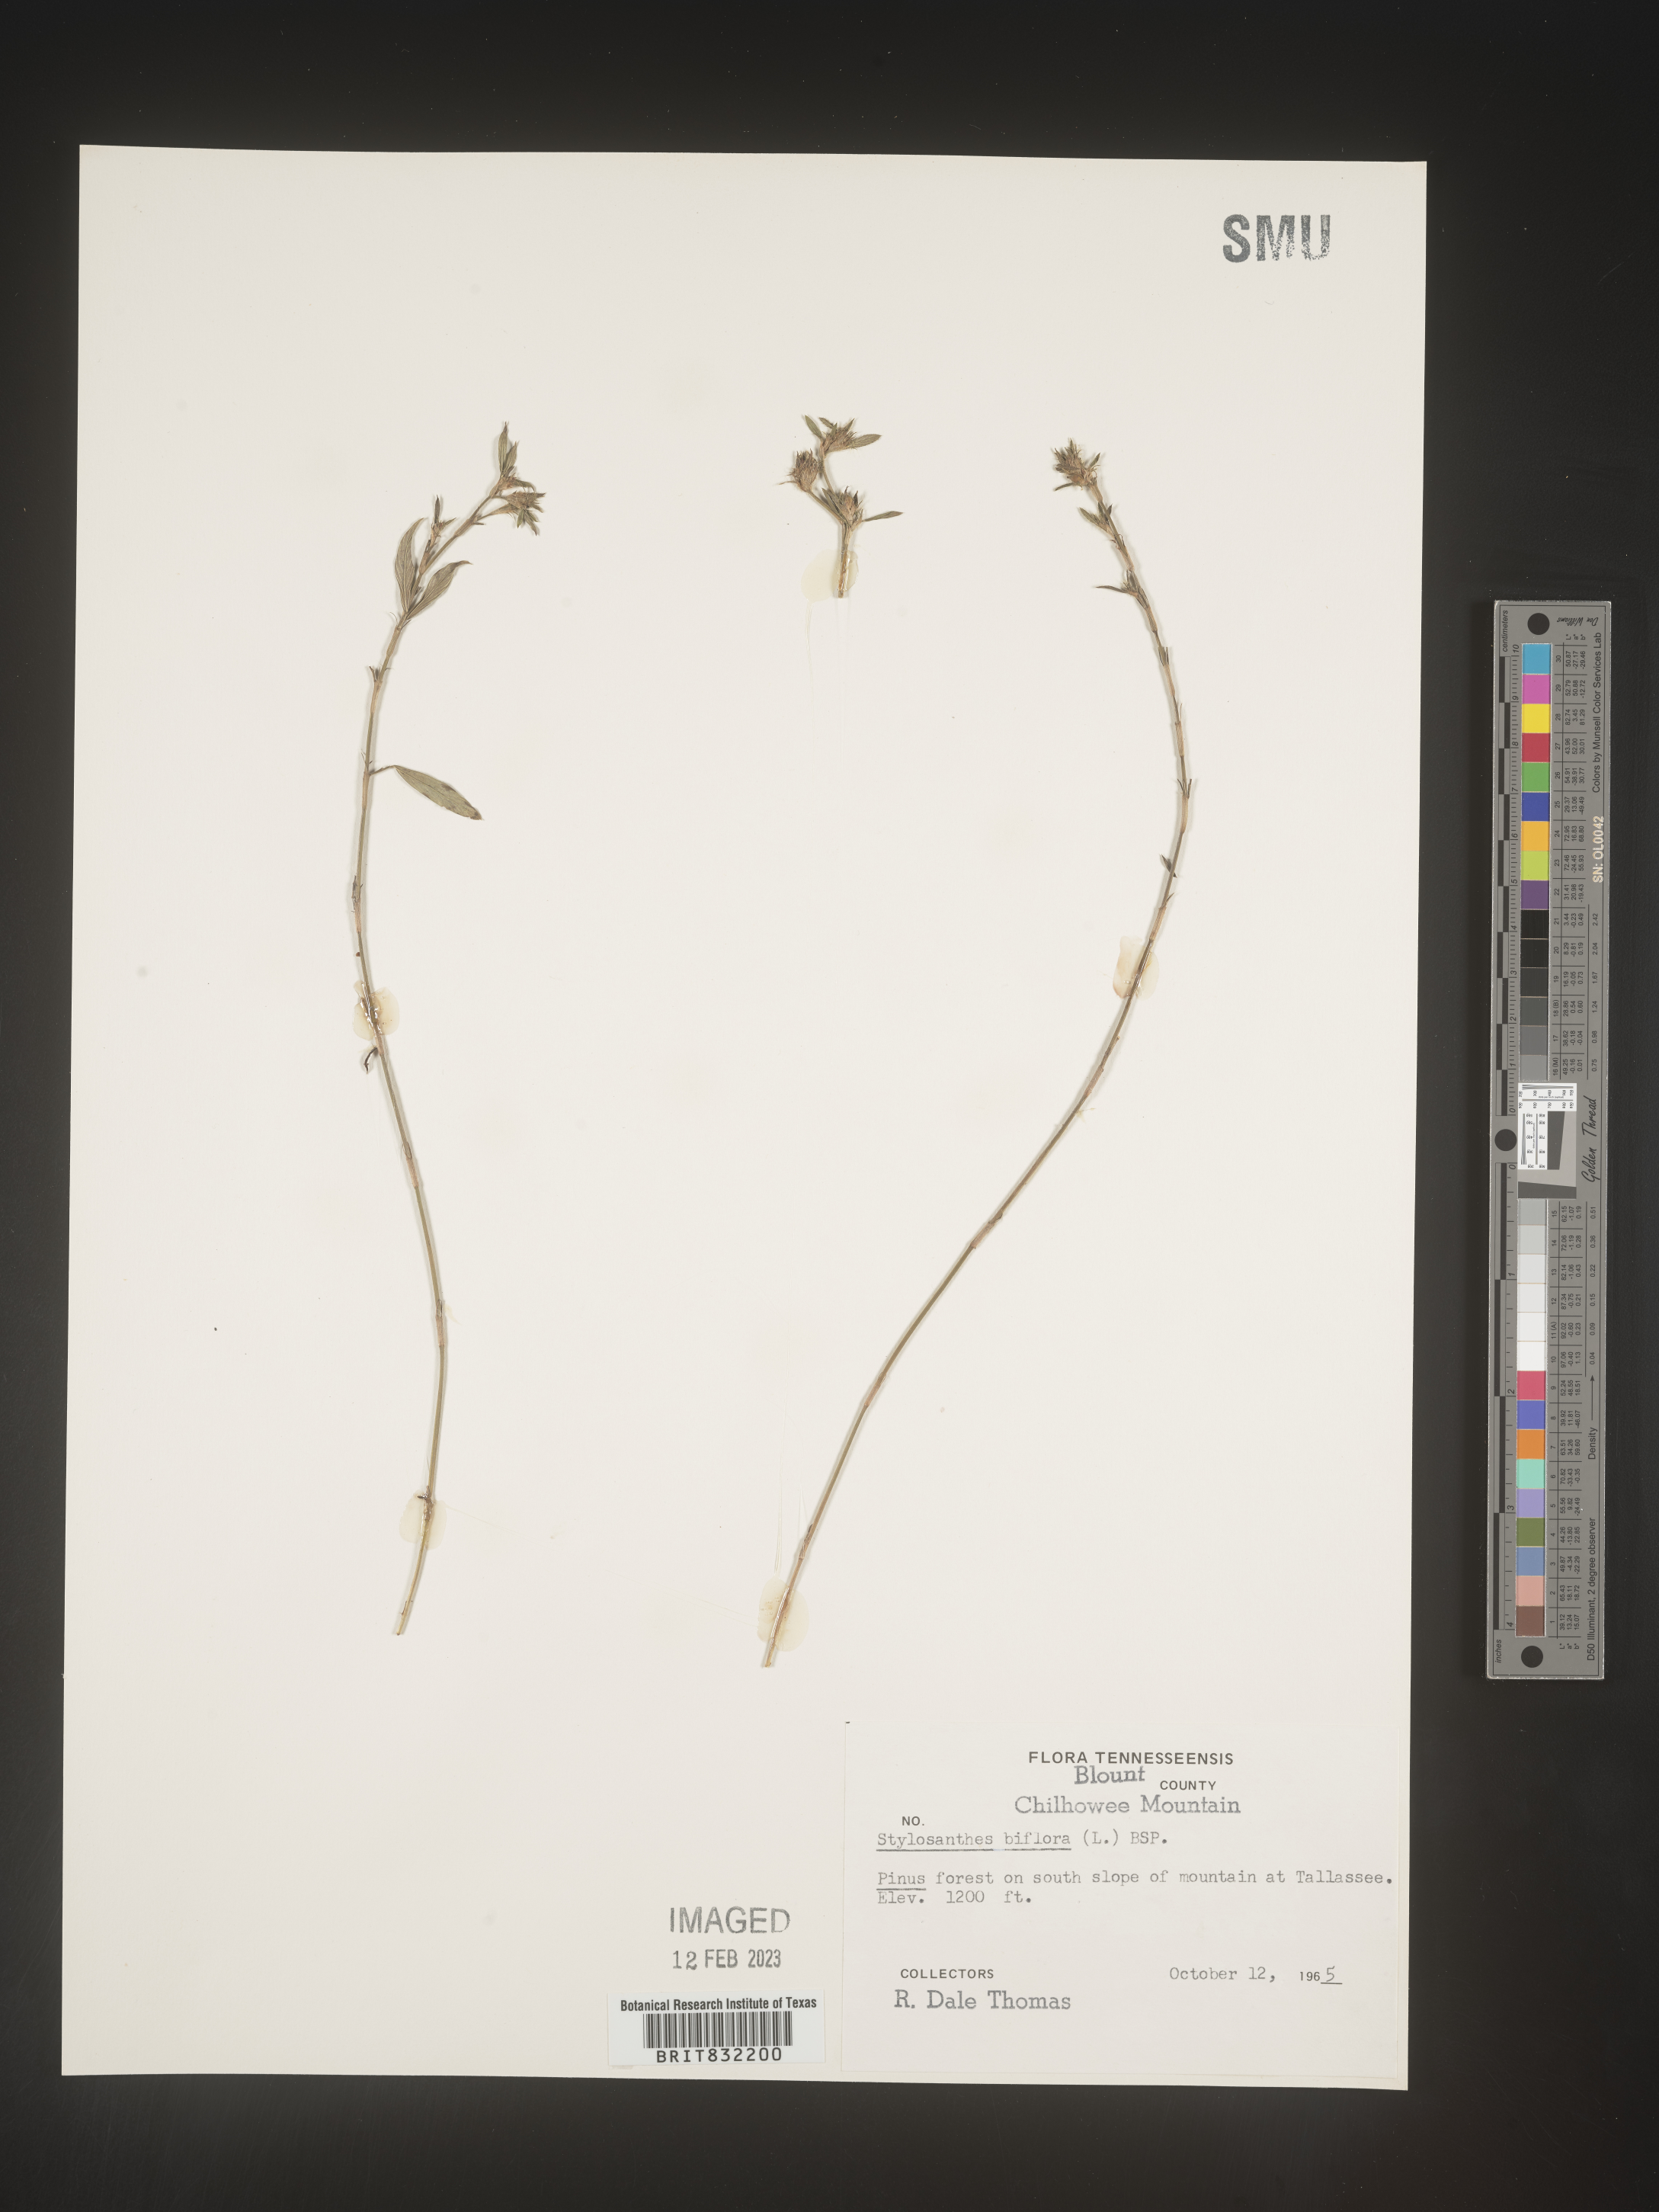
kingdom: Plantae
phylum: Tracheophyta
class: Magnoliopsida
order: Fabales
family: Fabaceae
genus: Stylosanthes
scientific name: Stylosanthes biflora
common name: Two-flower pencil-flower
